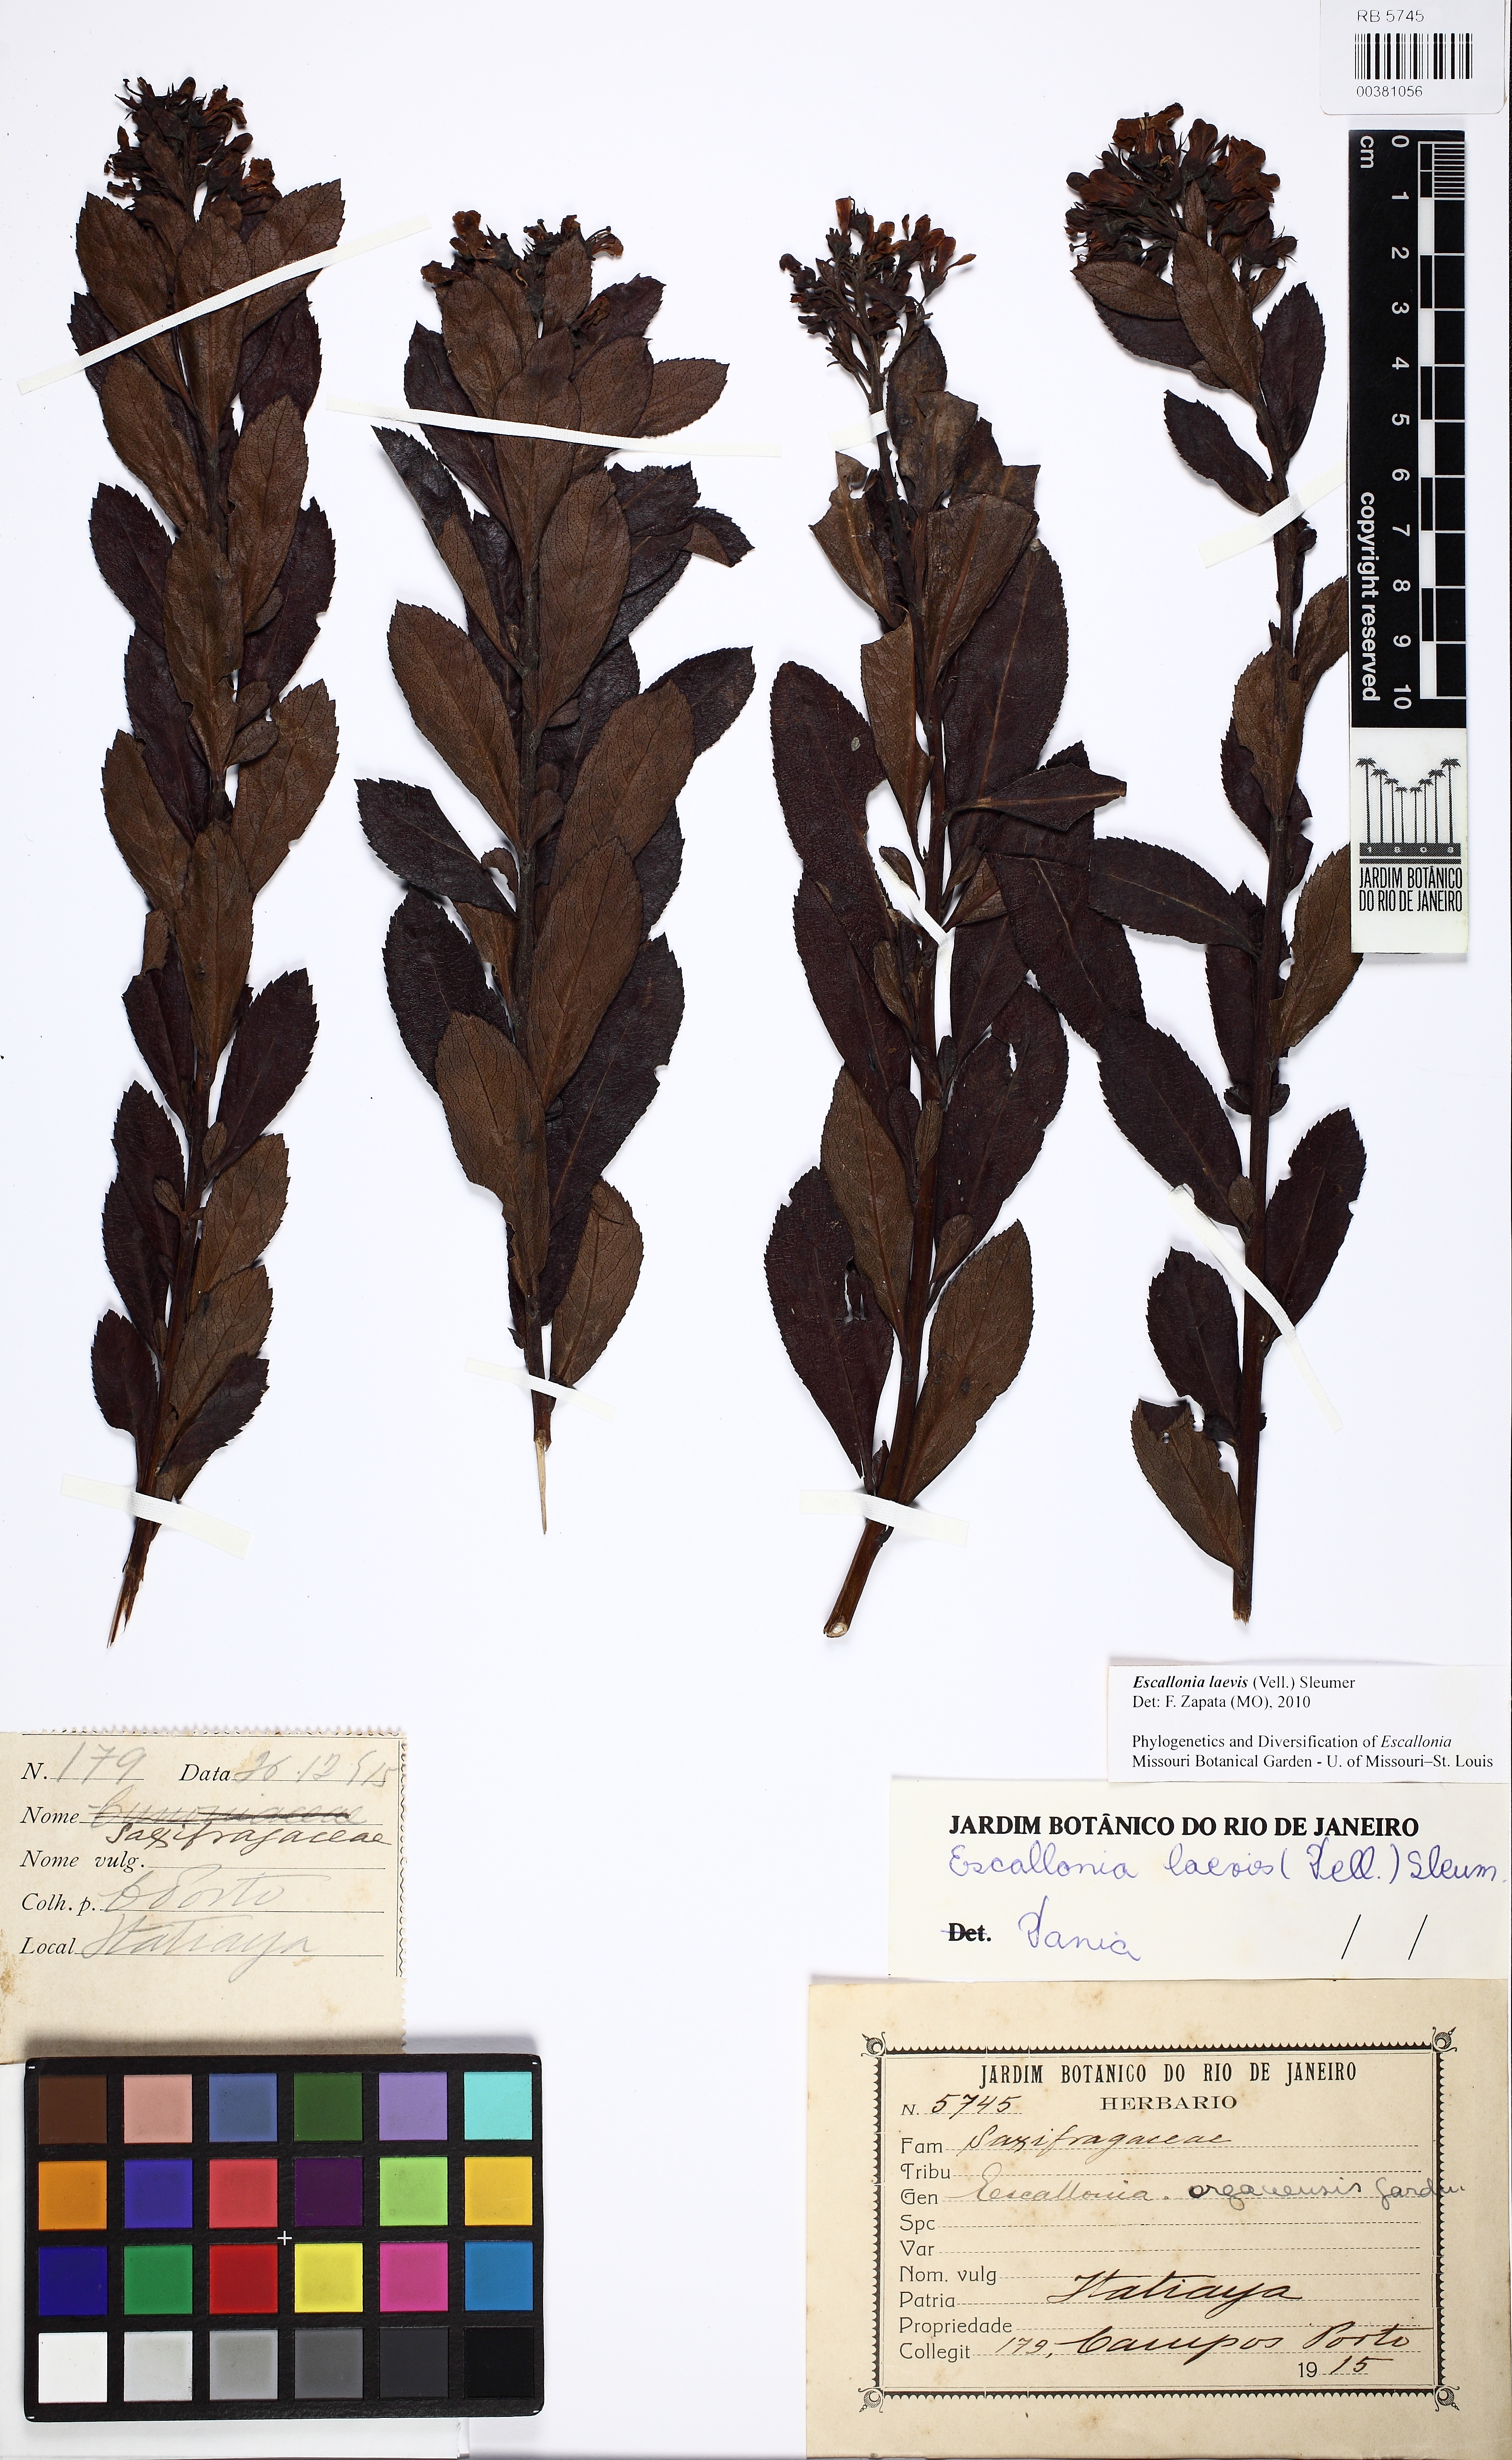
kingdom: Plantae
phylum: Tracheophyta
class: Magnoliopsida
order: Escalloniales
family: Escalloniaceae
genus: Escallonia
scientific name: Escallonia laevis
